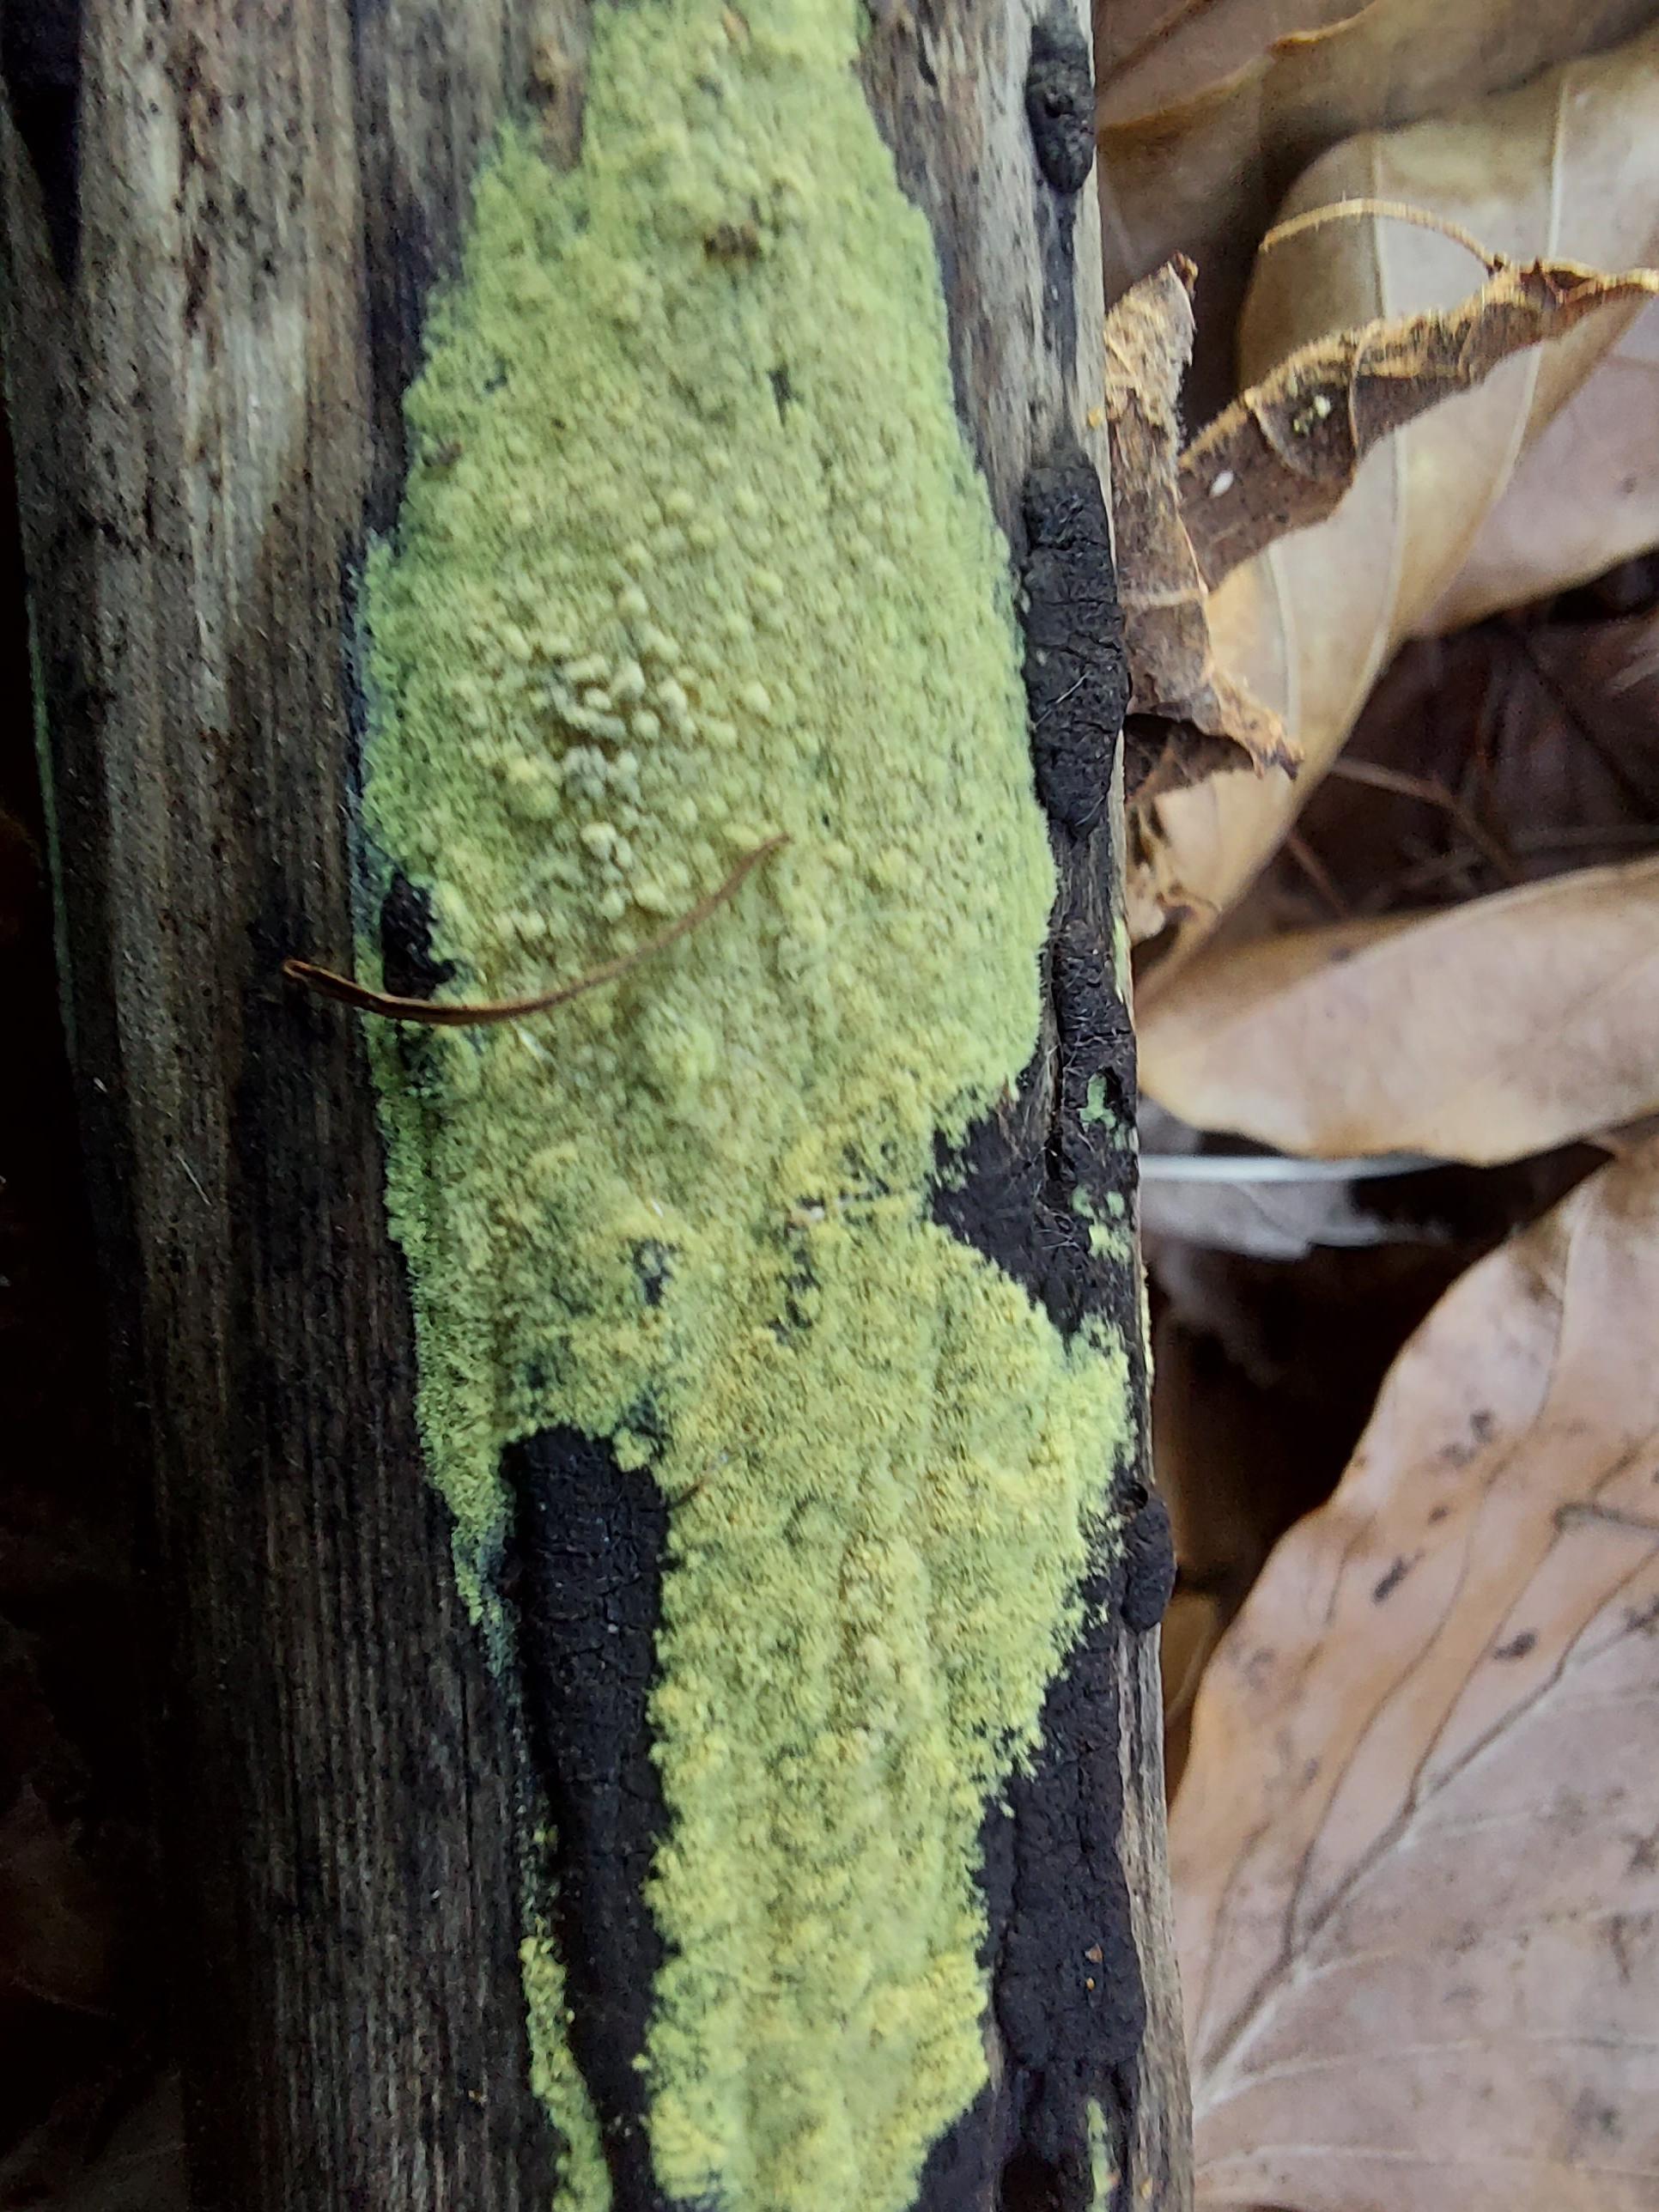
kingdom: Fungi
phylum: Ascomycota
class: Sordariomycetes
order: Xylariales
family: Hypoxylaceae
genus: Nodulisporium
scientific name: Nodulisporium
